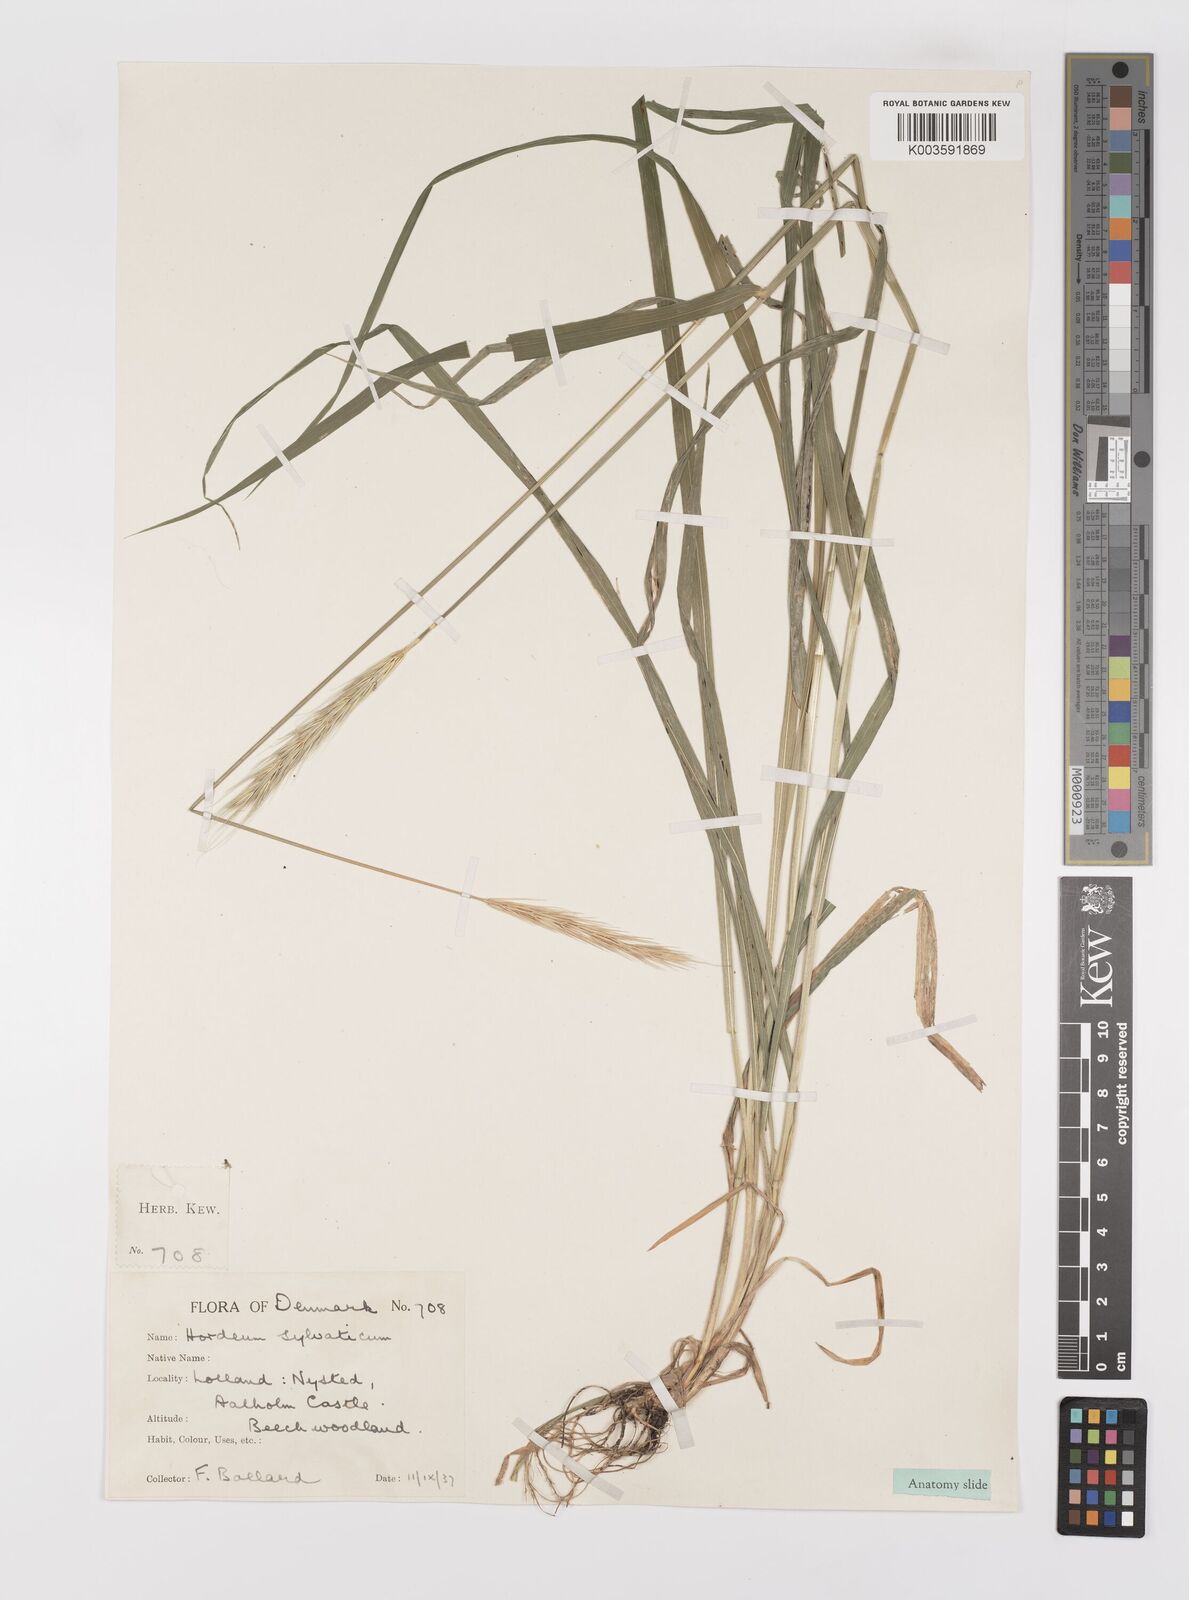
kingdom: Plantae
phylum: Tracheophyta
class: Liliopsida
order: Poales
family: Poaceae
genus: Hordelymus
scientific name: Hordelymus europaeus
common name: Wood-barley
